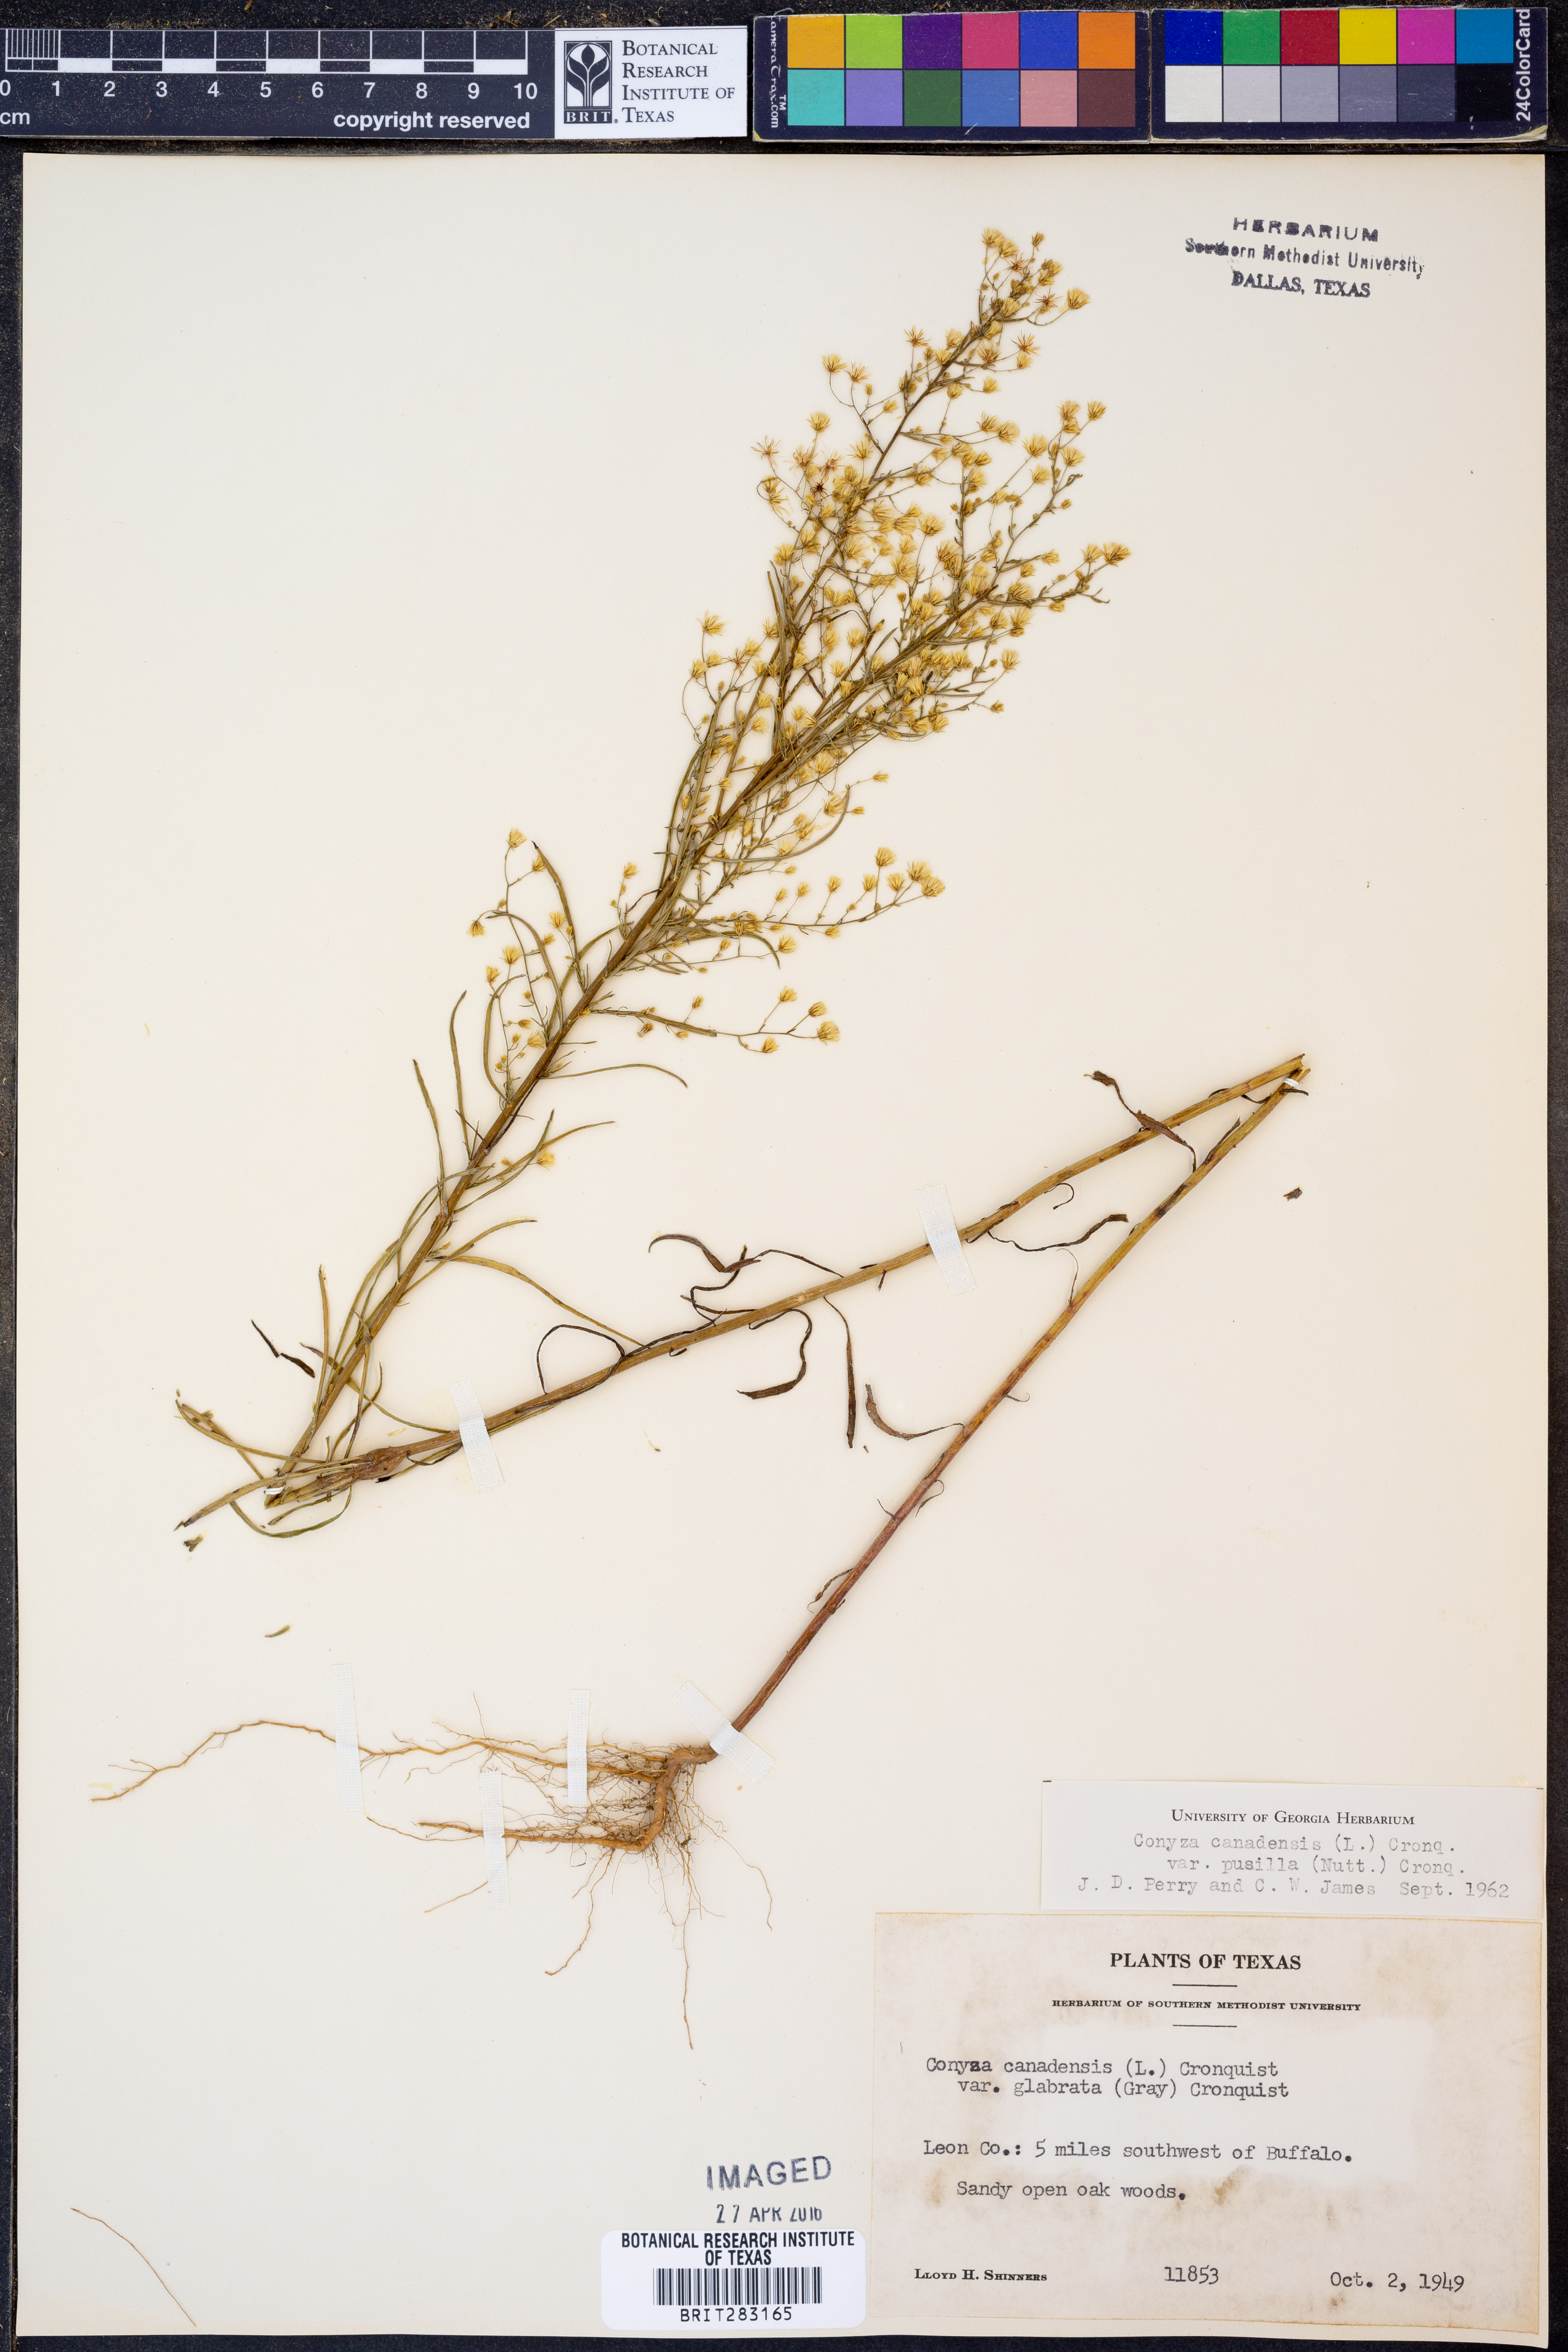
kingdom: Plantae
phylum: Tracheophyta
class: Magnoliopsida
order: Asterales
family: Asteraceae
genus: Erigeron
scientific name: Erigeron canadensis
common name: Canadian fleabane
